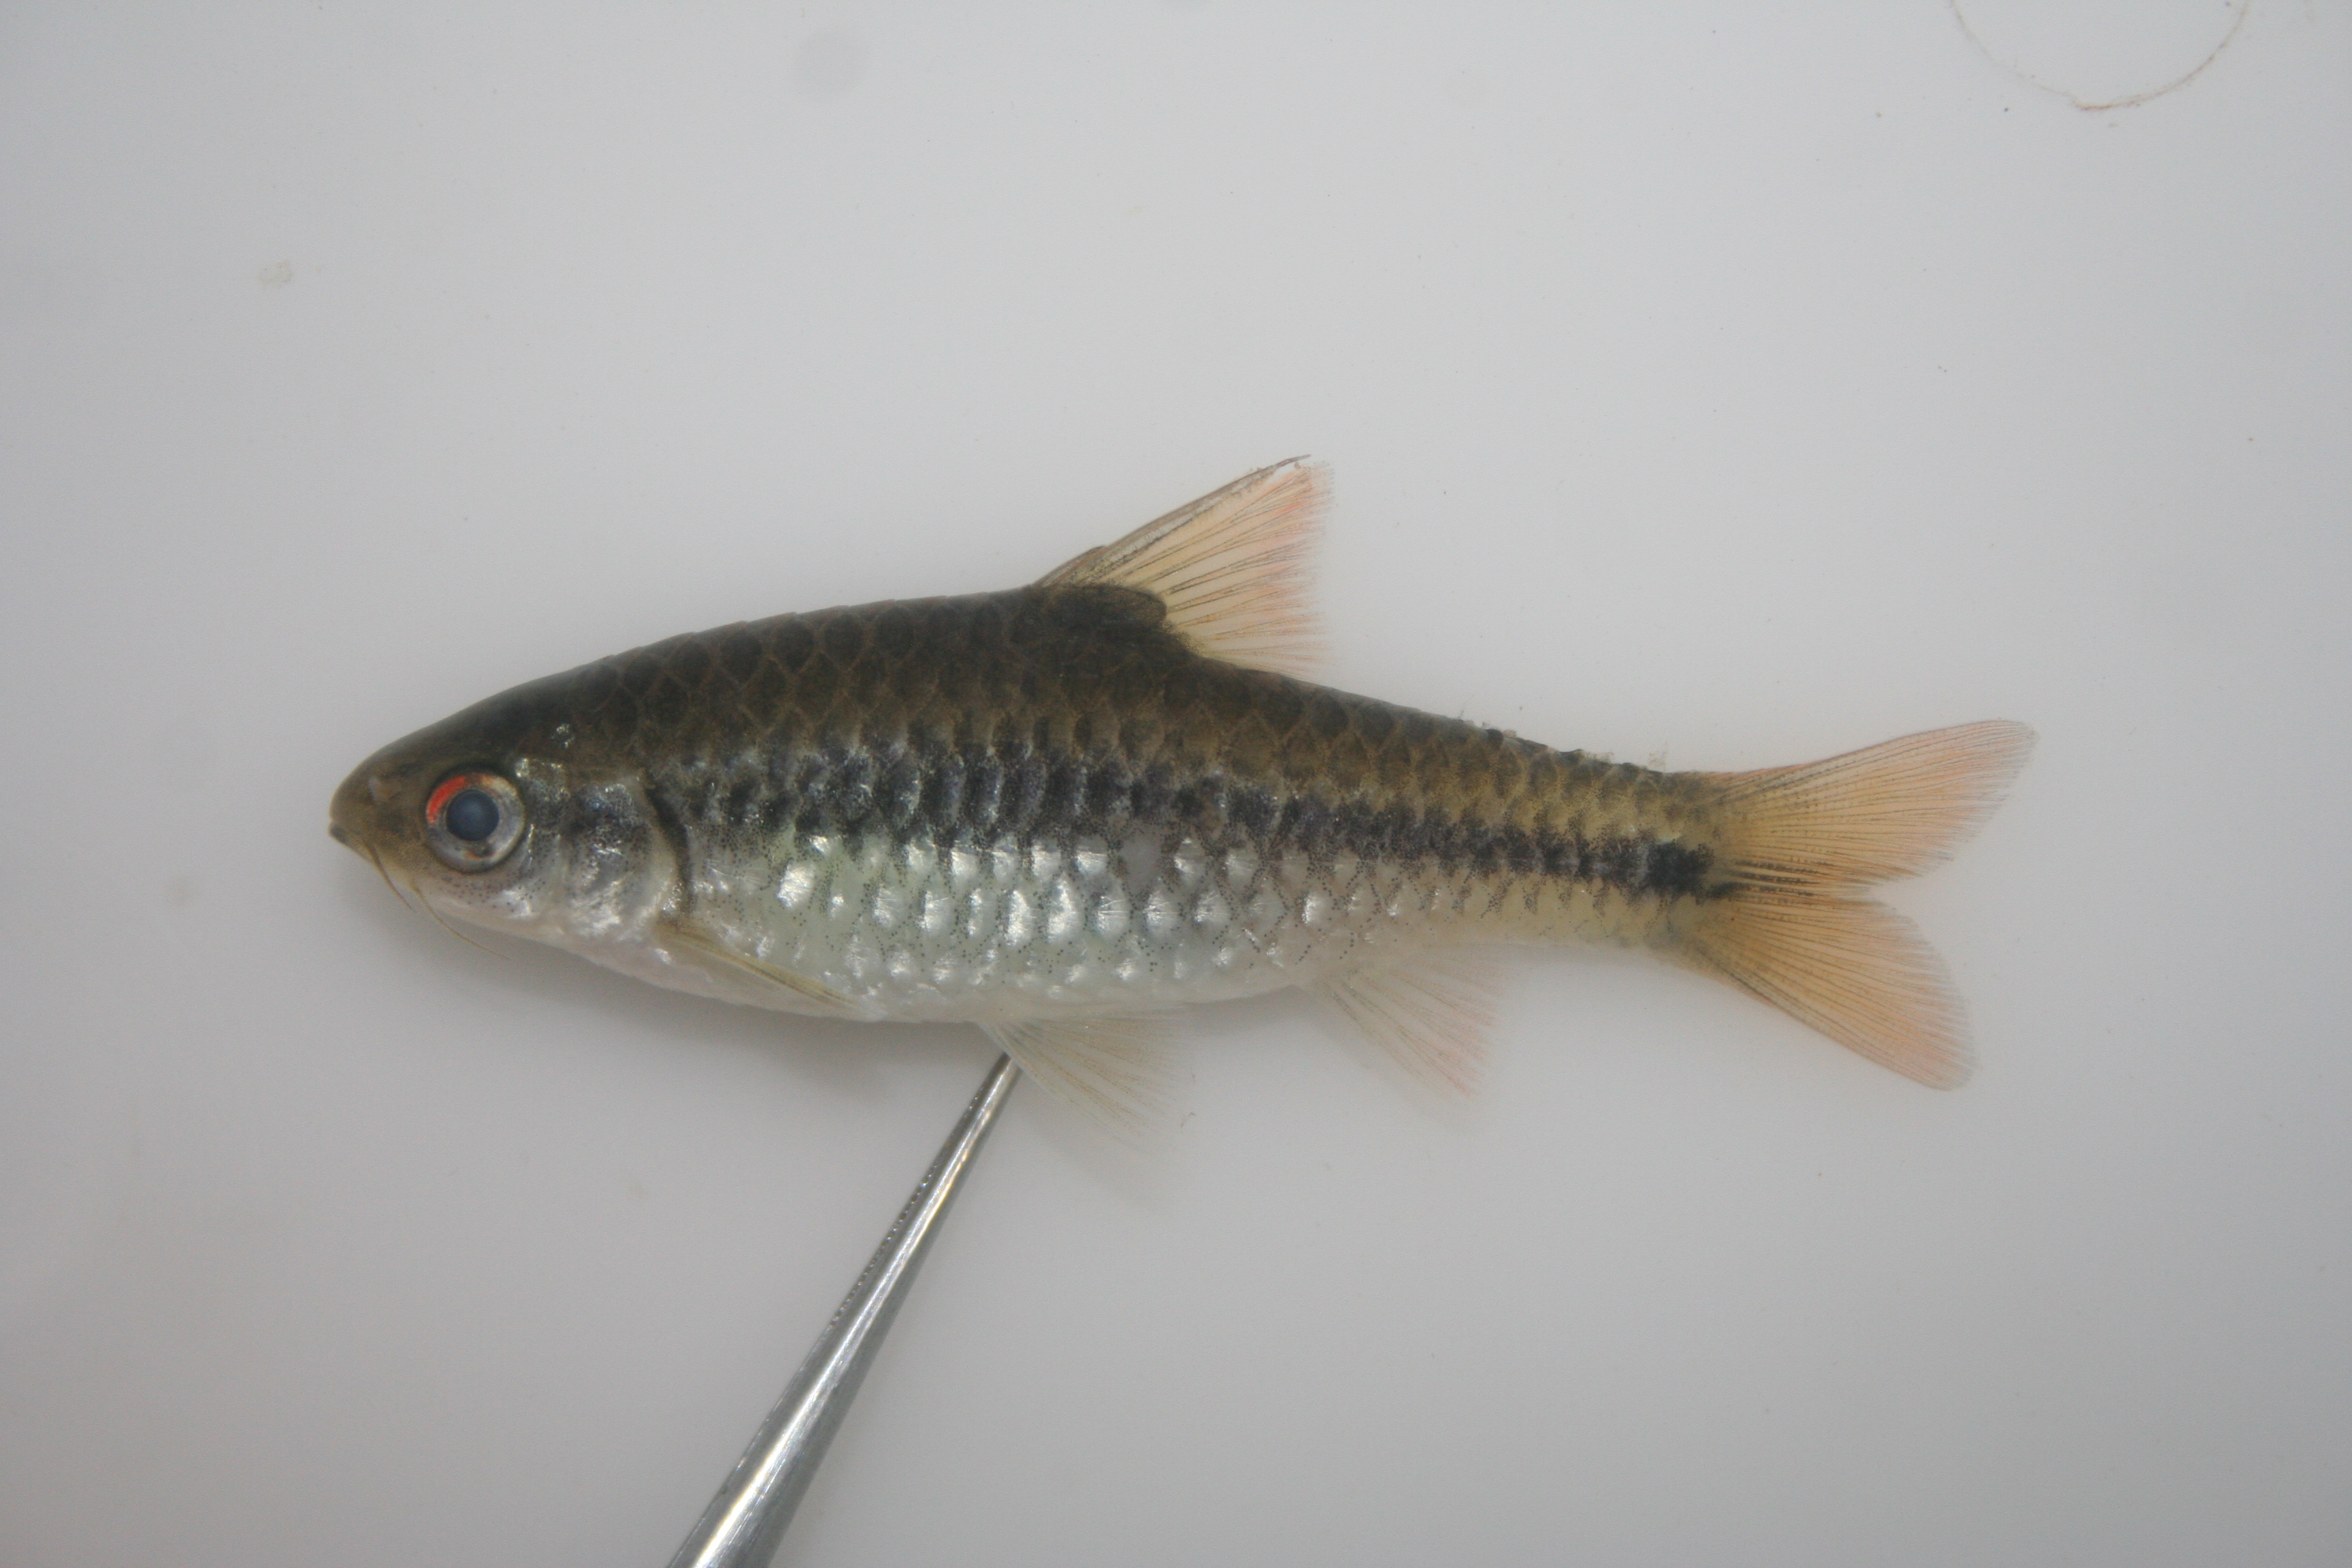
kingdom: Animalia
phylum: Chordata
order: Cypriniformes
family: Cyprinidae
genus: Barbus
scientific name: Barbus
